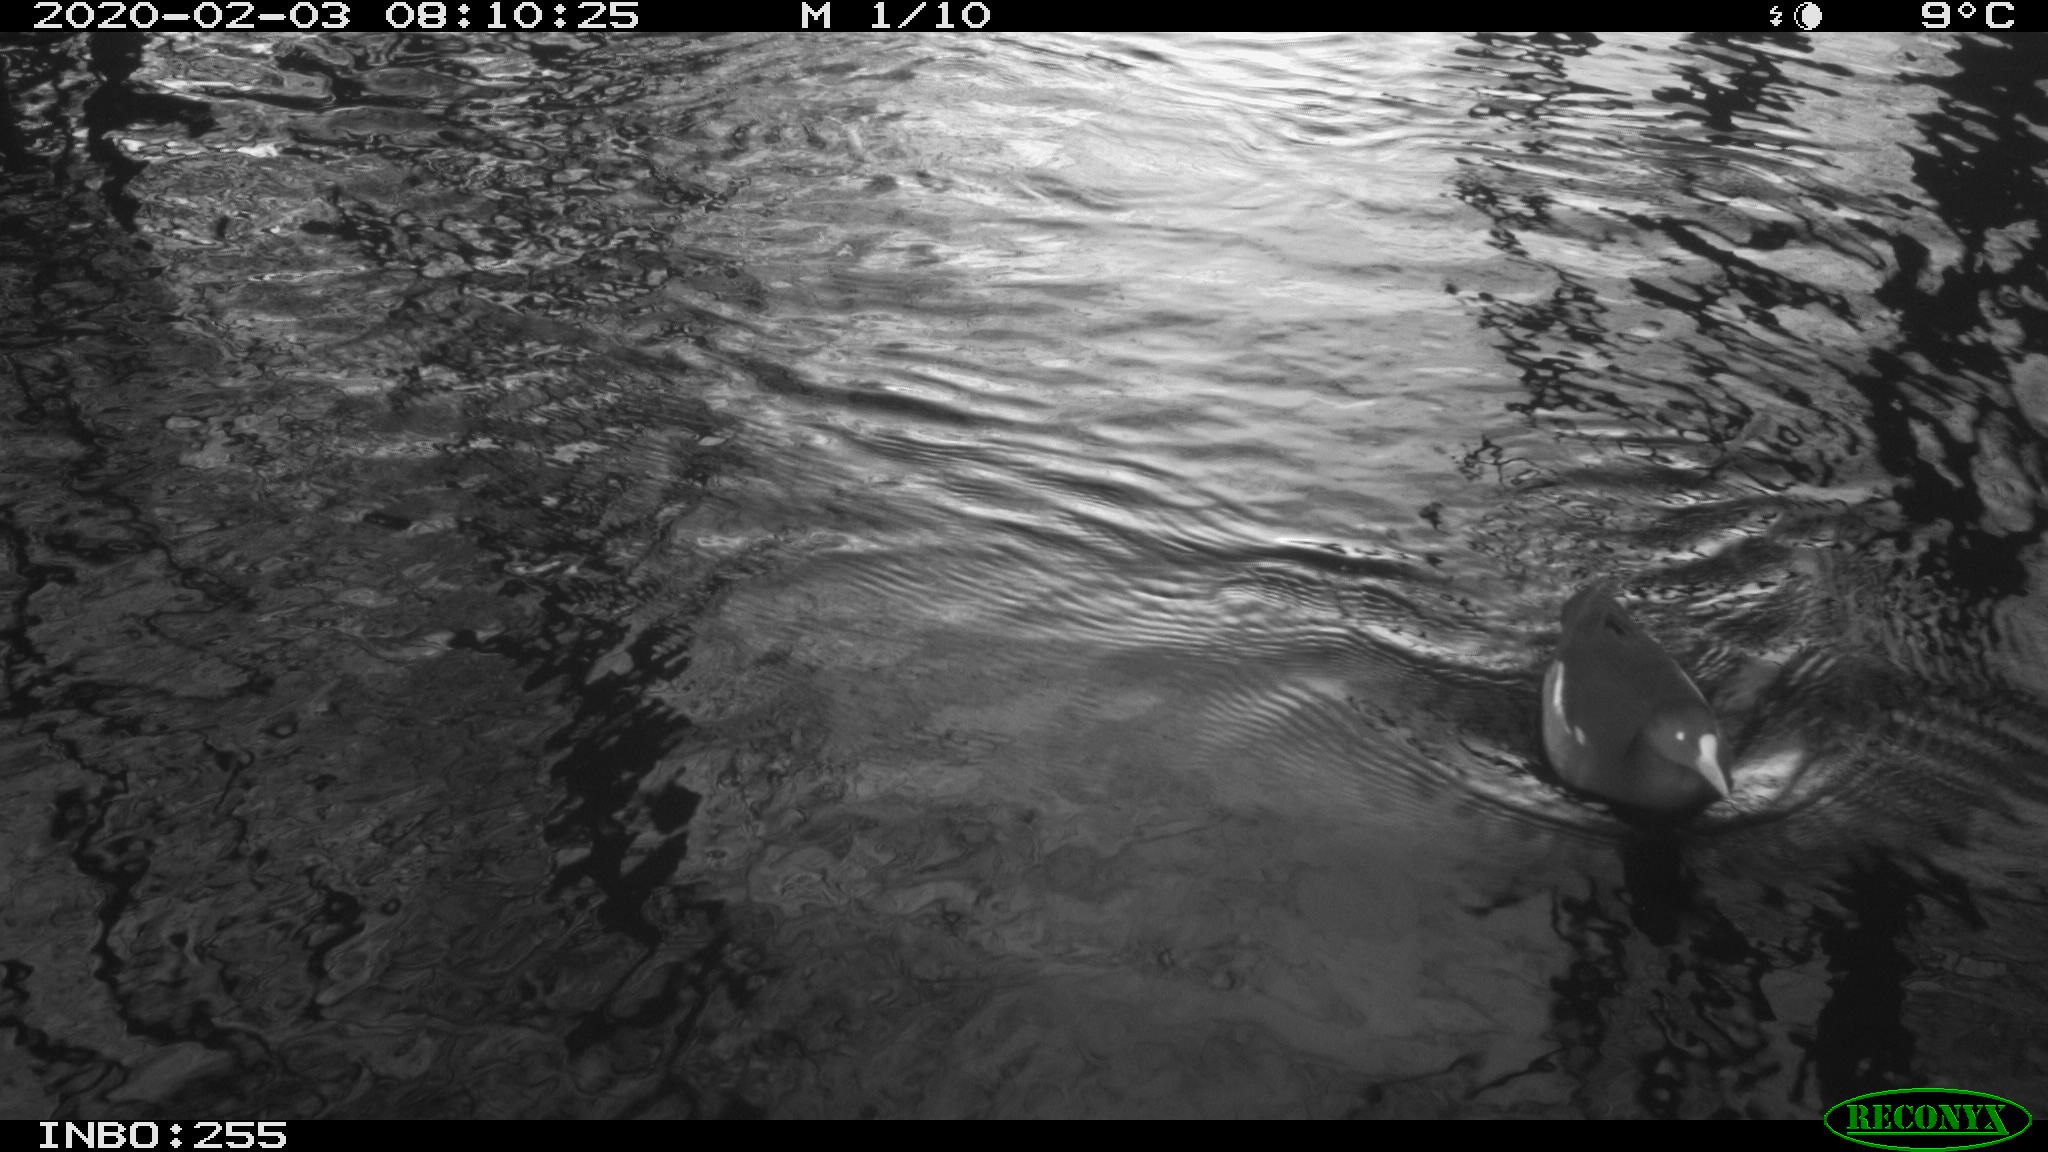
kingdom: Animalia
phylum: Chordata
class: Aves
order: Gruiformes
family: Rallidae
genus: Gallinula
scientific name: Gallinula chloropus
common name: Common moorhen
